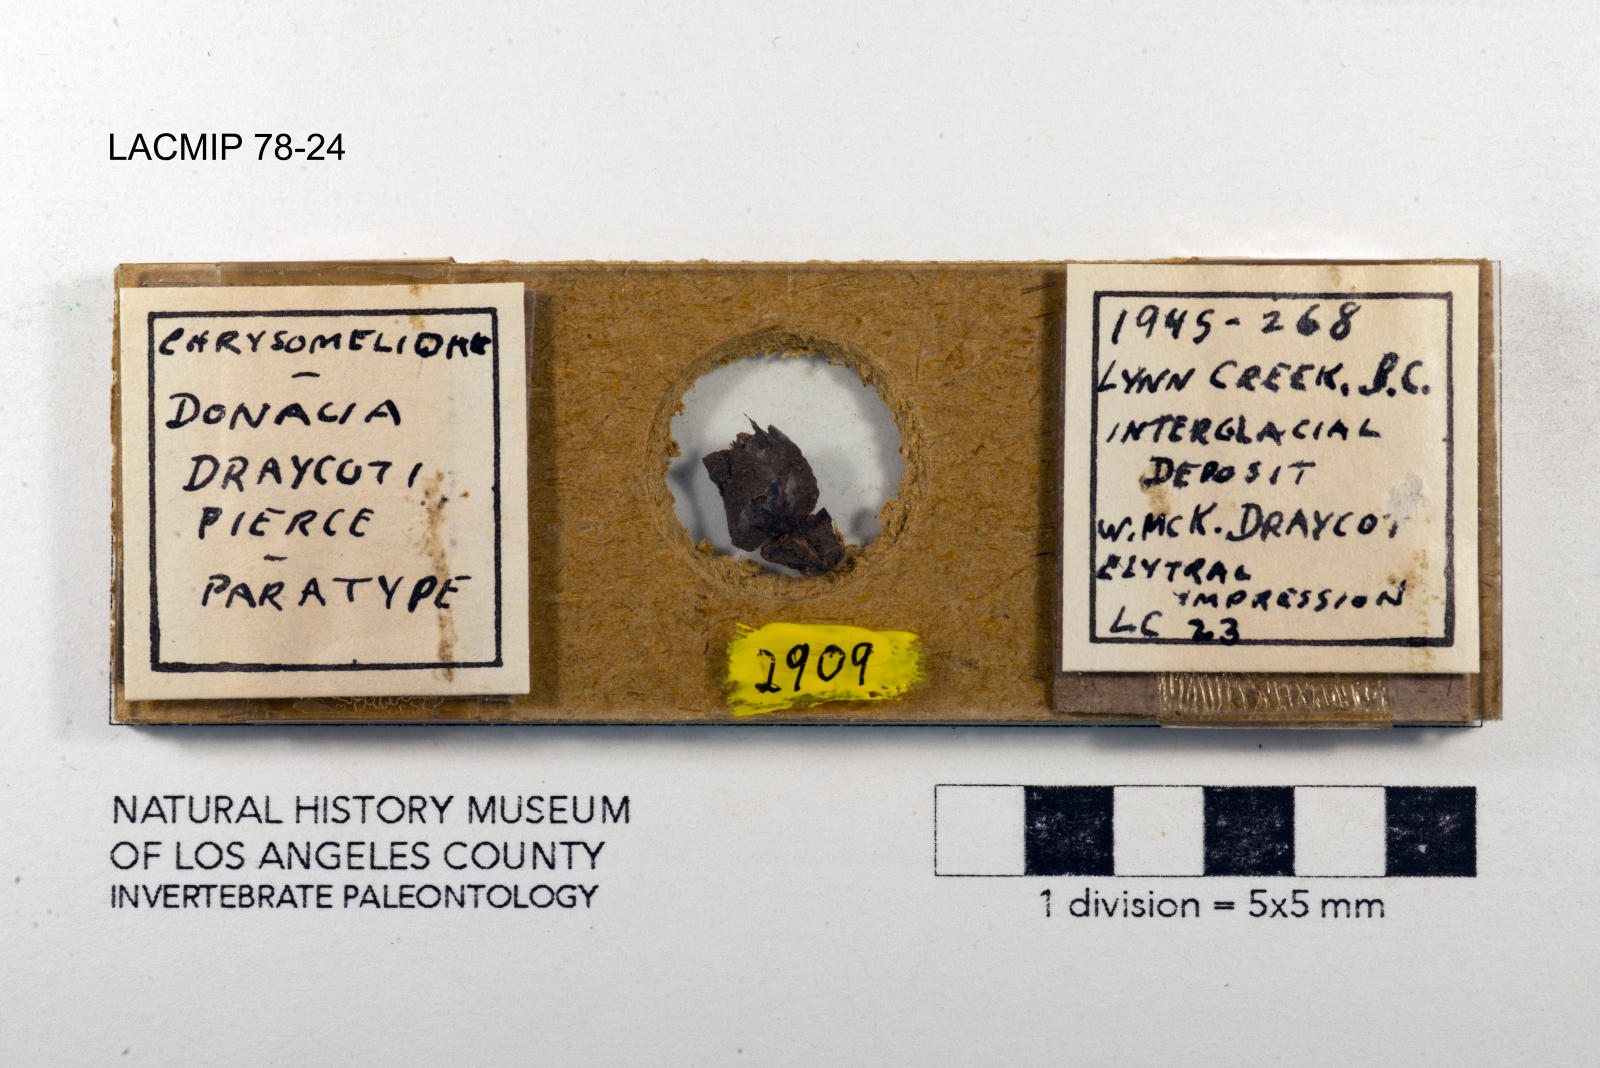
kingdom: Animalia
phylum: Arthropoda
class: Insecta
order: Coleoptera
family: Chrysomelidae
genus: Donacia
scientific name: Donacia draycoti
